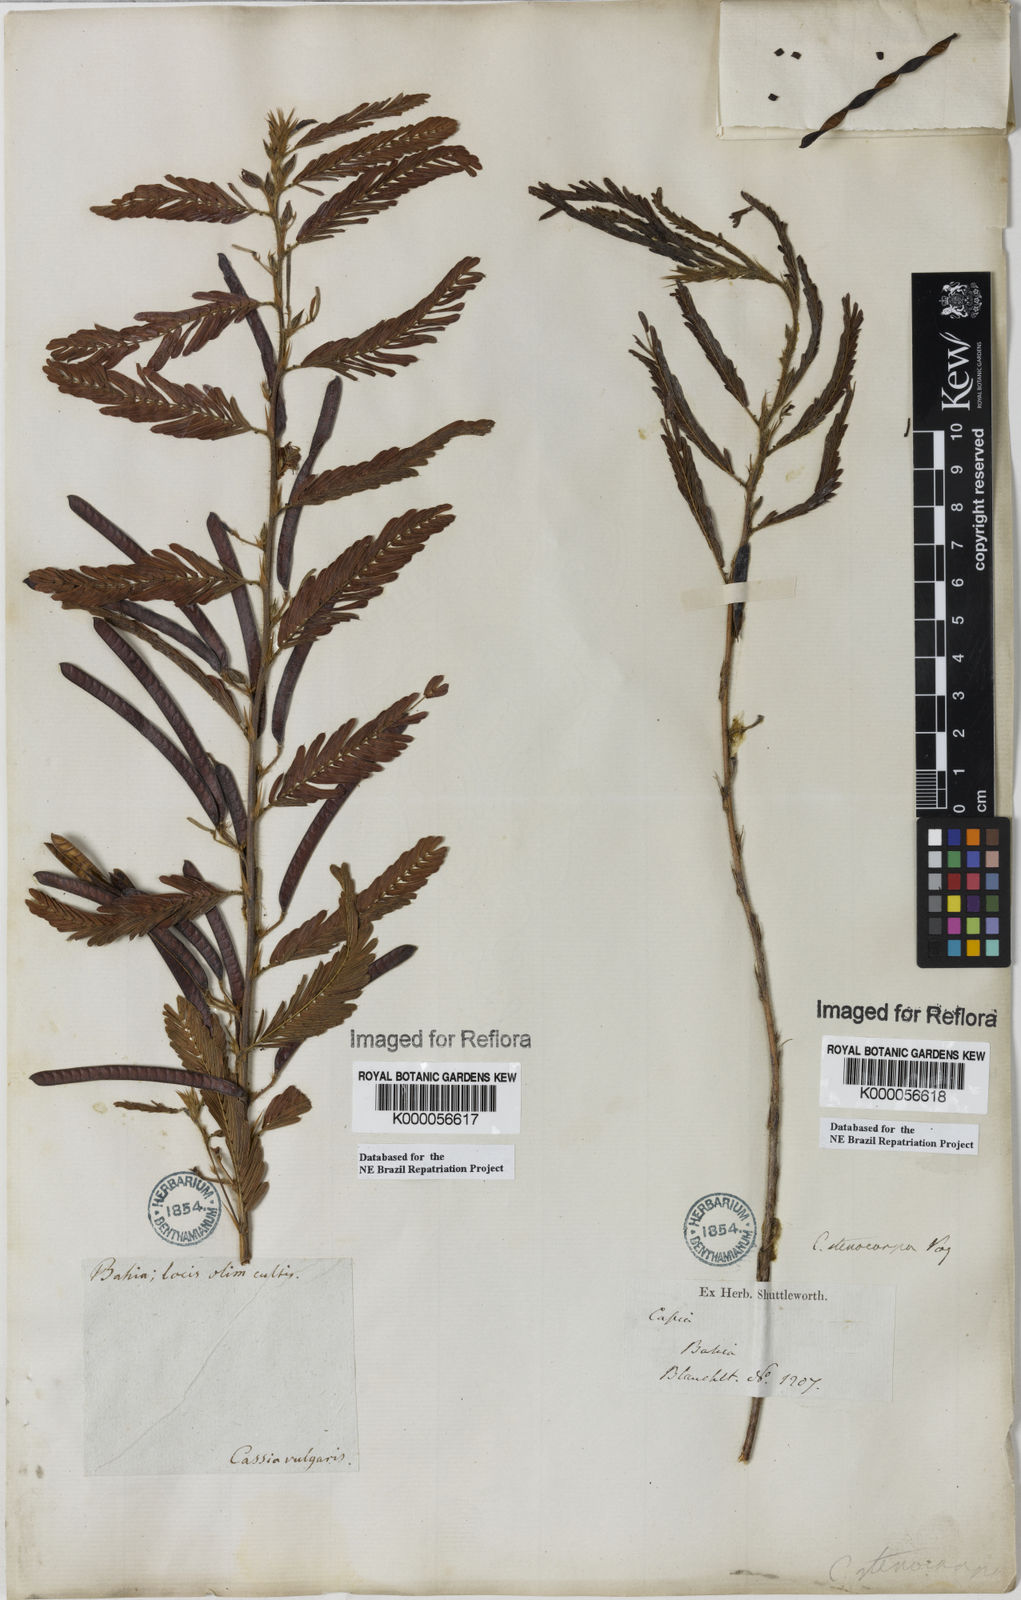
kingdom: Plantae
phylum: Tracheophyta
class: Magnoliopsida
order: Fabales
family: Fabaceae
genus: Chamaecrista
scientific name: Chamaecrista nictitans
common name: Sensitive cassia
